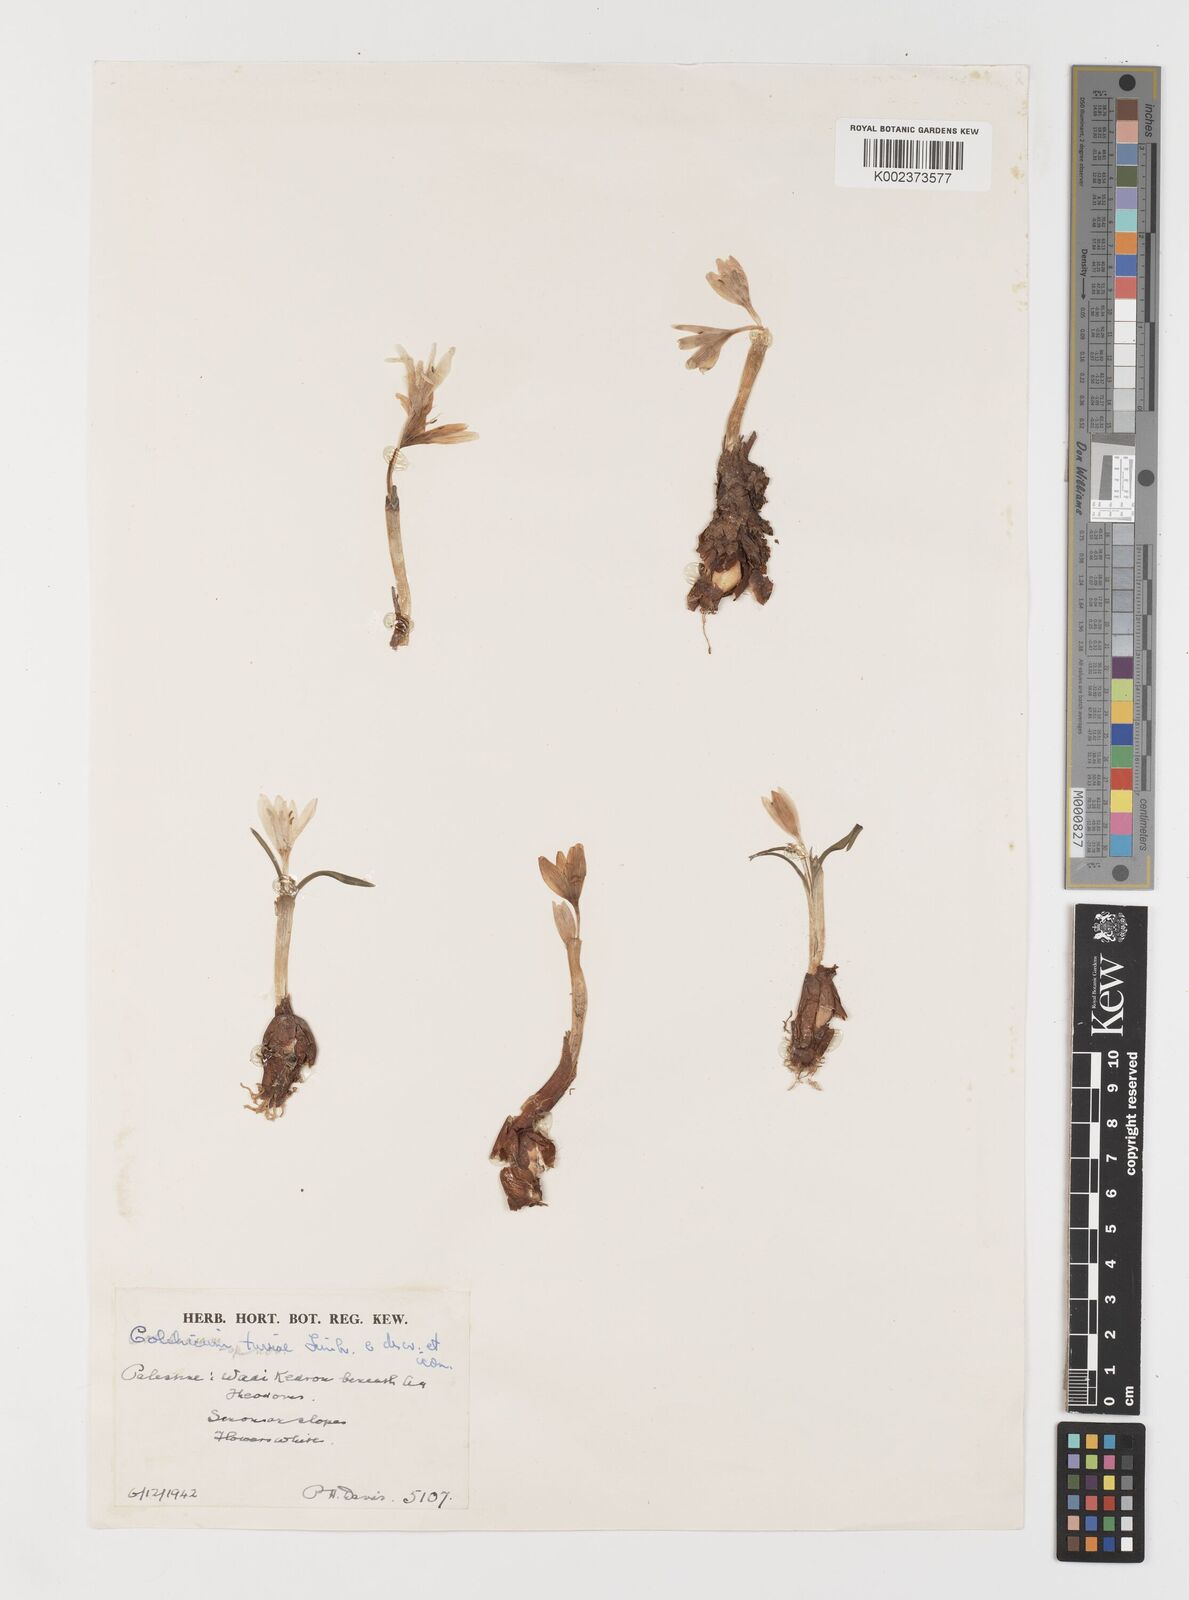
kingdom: Plantae
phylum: Tracheophyta
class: Liliopsida
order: Liliales
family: Colchicaceae
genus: Colchicum
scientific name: Colchicum tuviae
